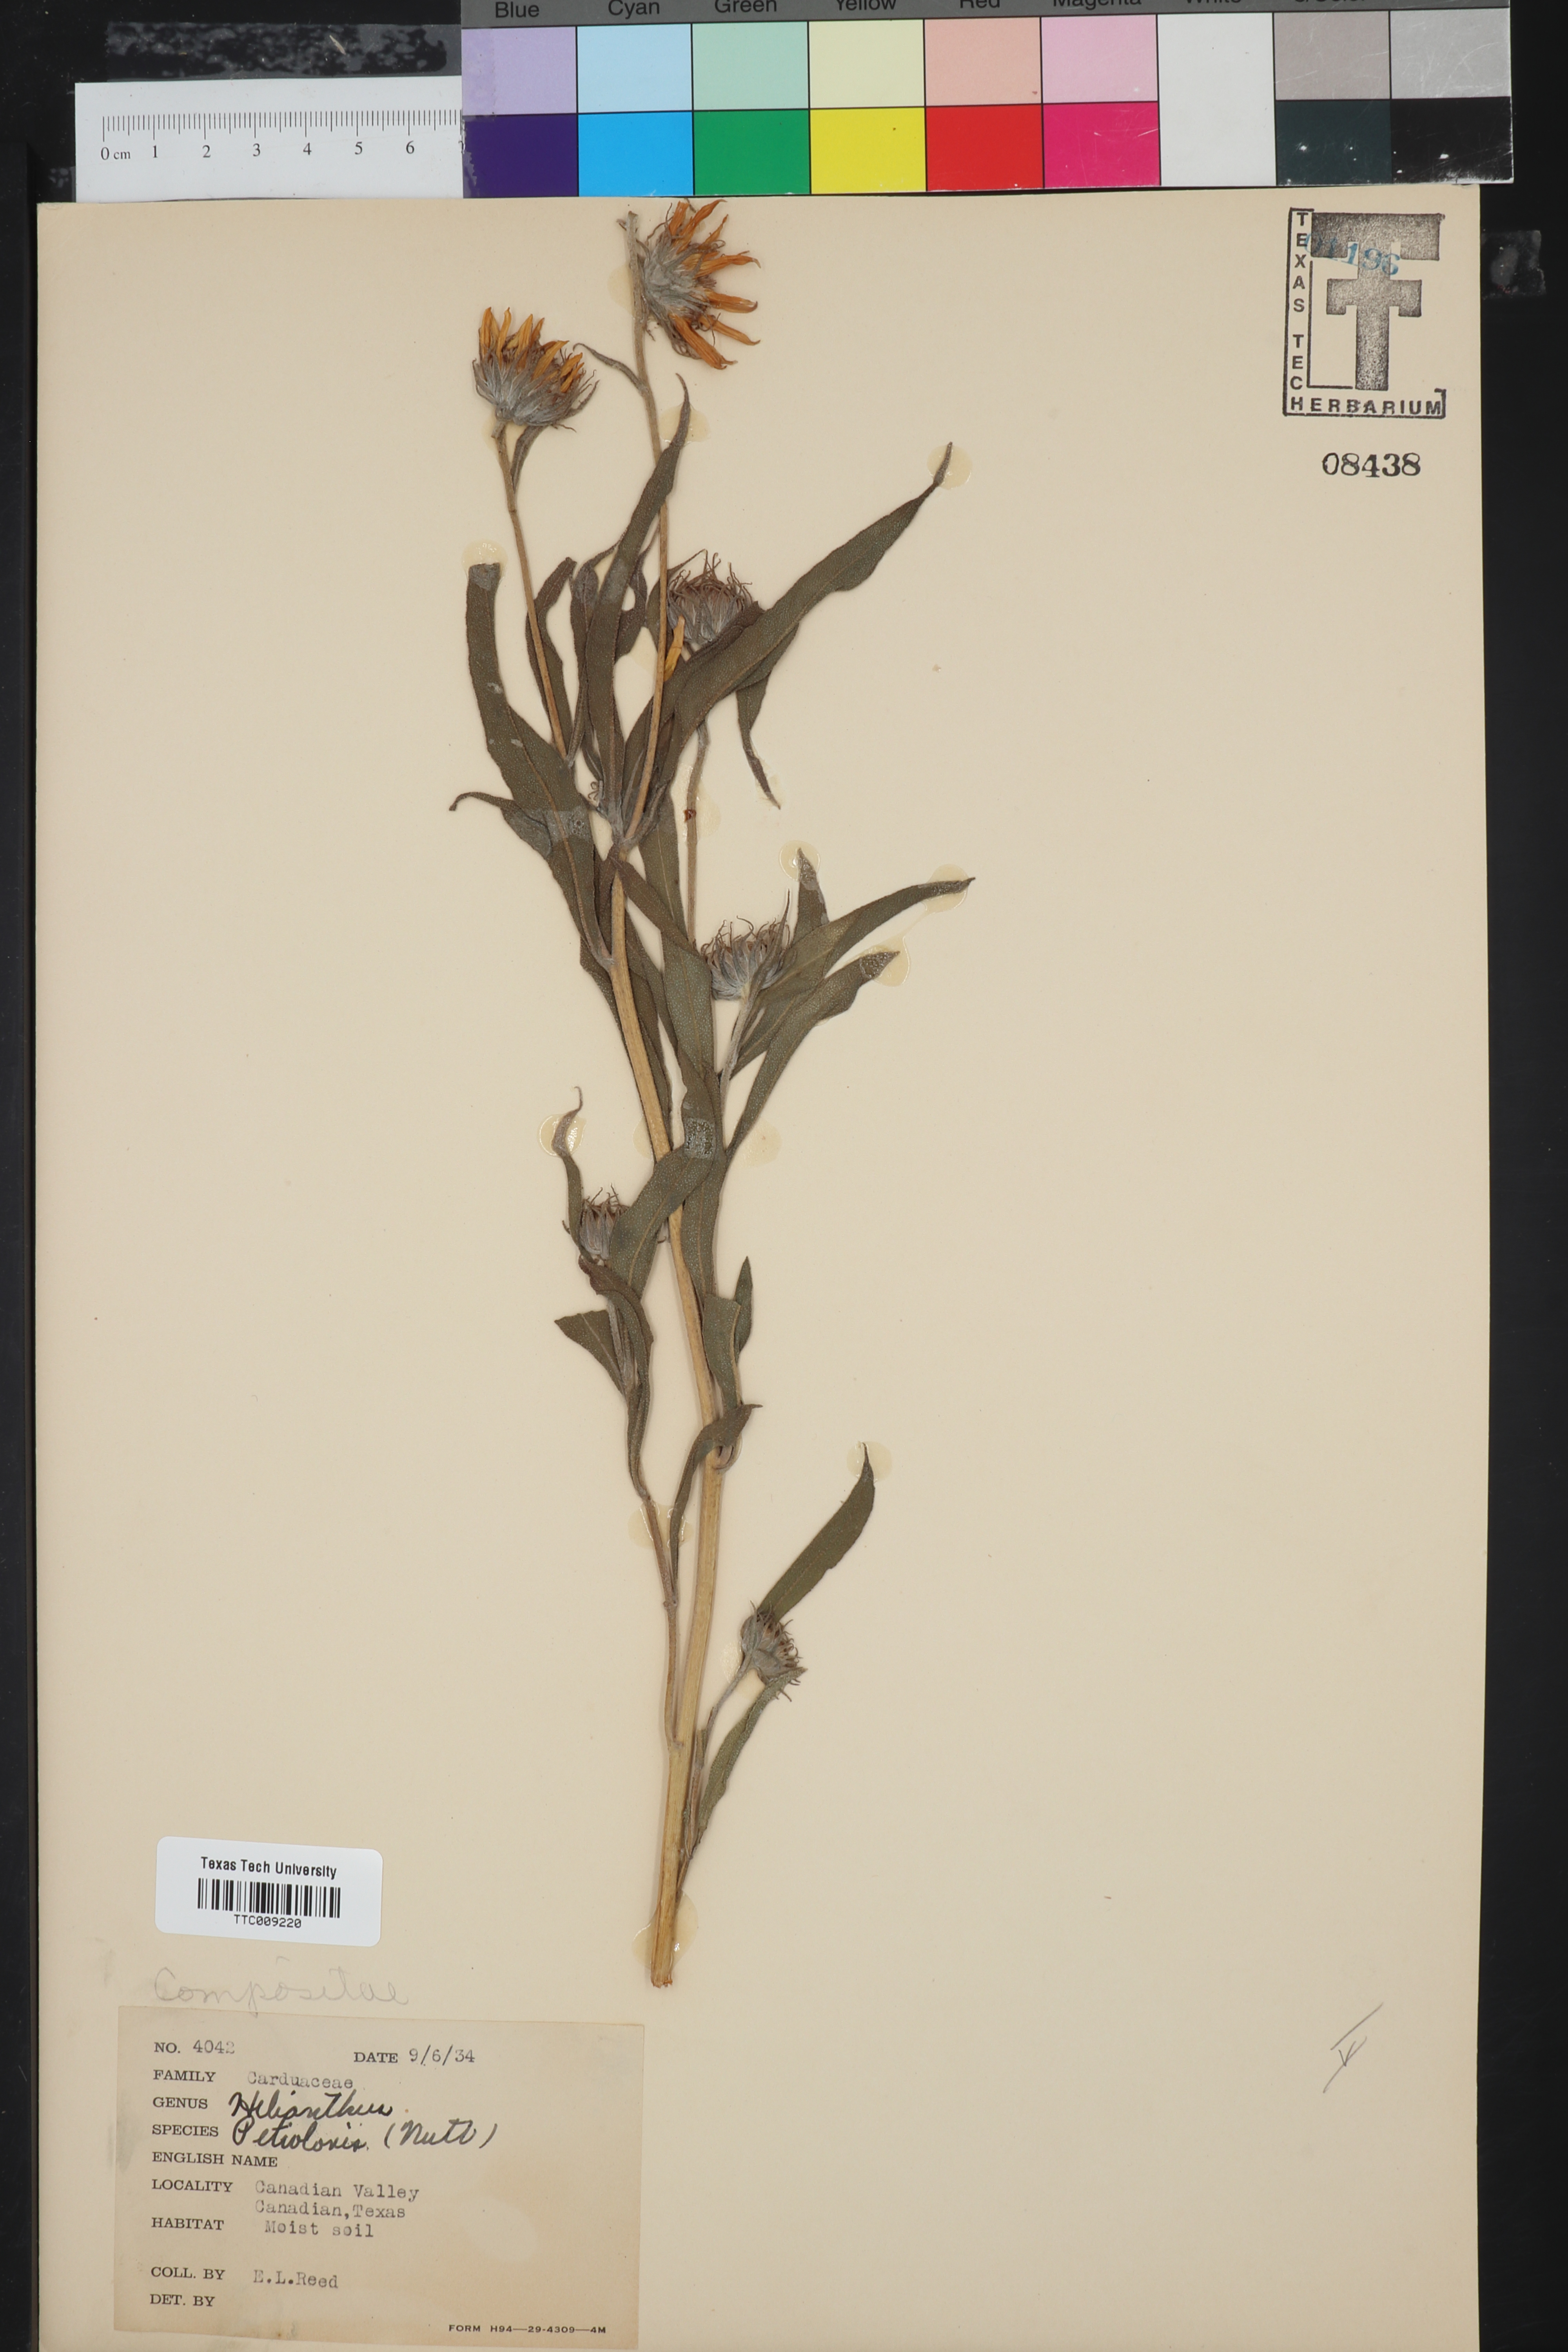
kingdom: Plantae
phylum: Tracheophyta
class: Magnoliopsida
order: Asterales
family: Asteraceae
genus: Helianthus
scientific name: Helianthus petiolaris
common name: Lesser sunflower
